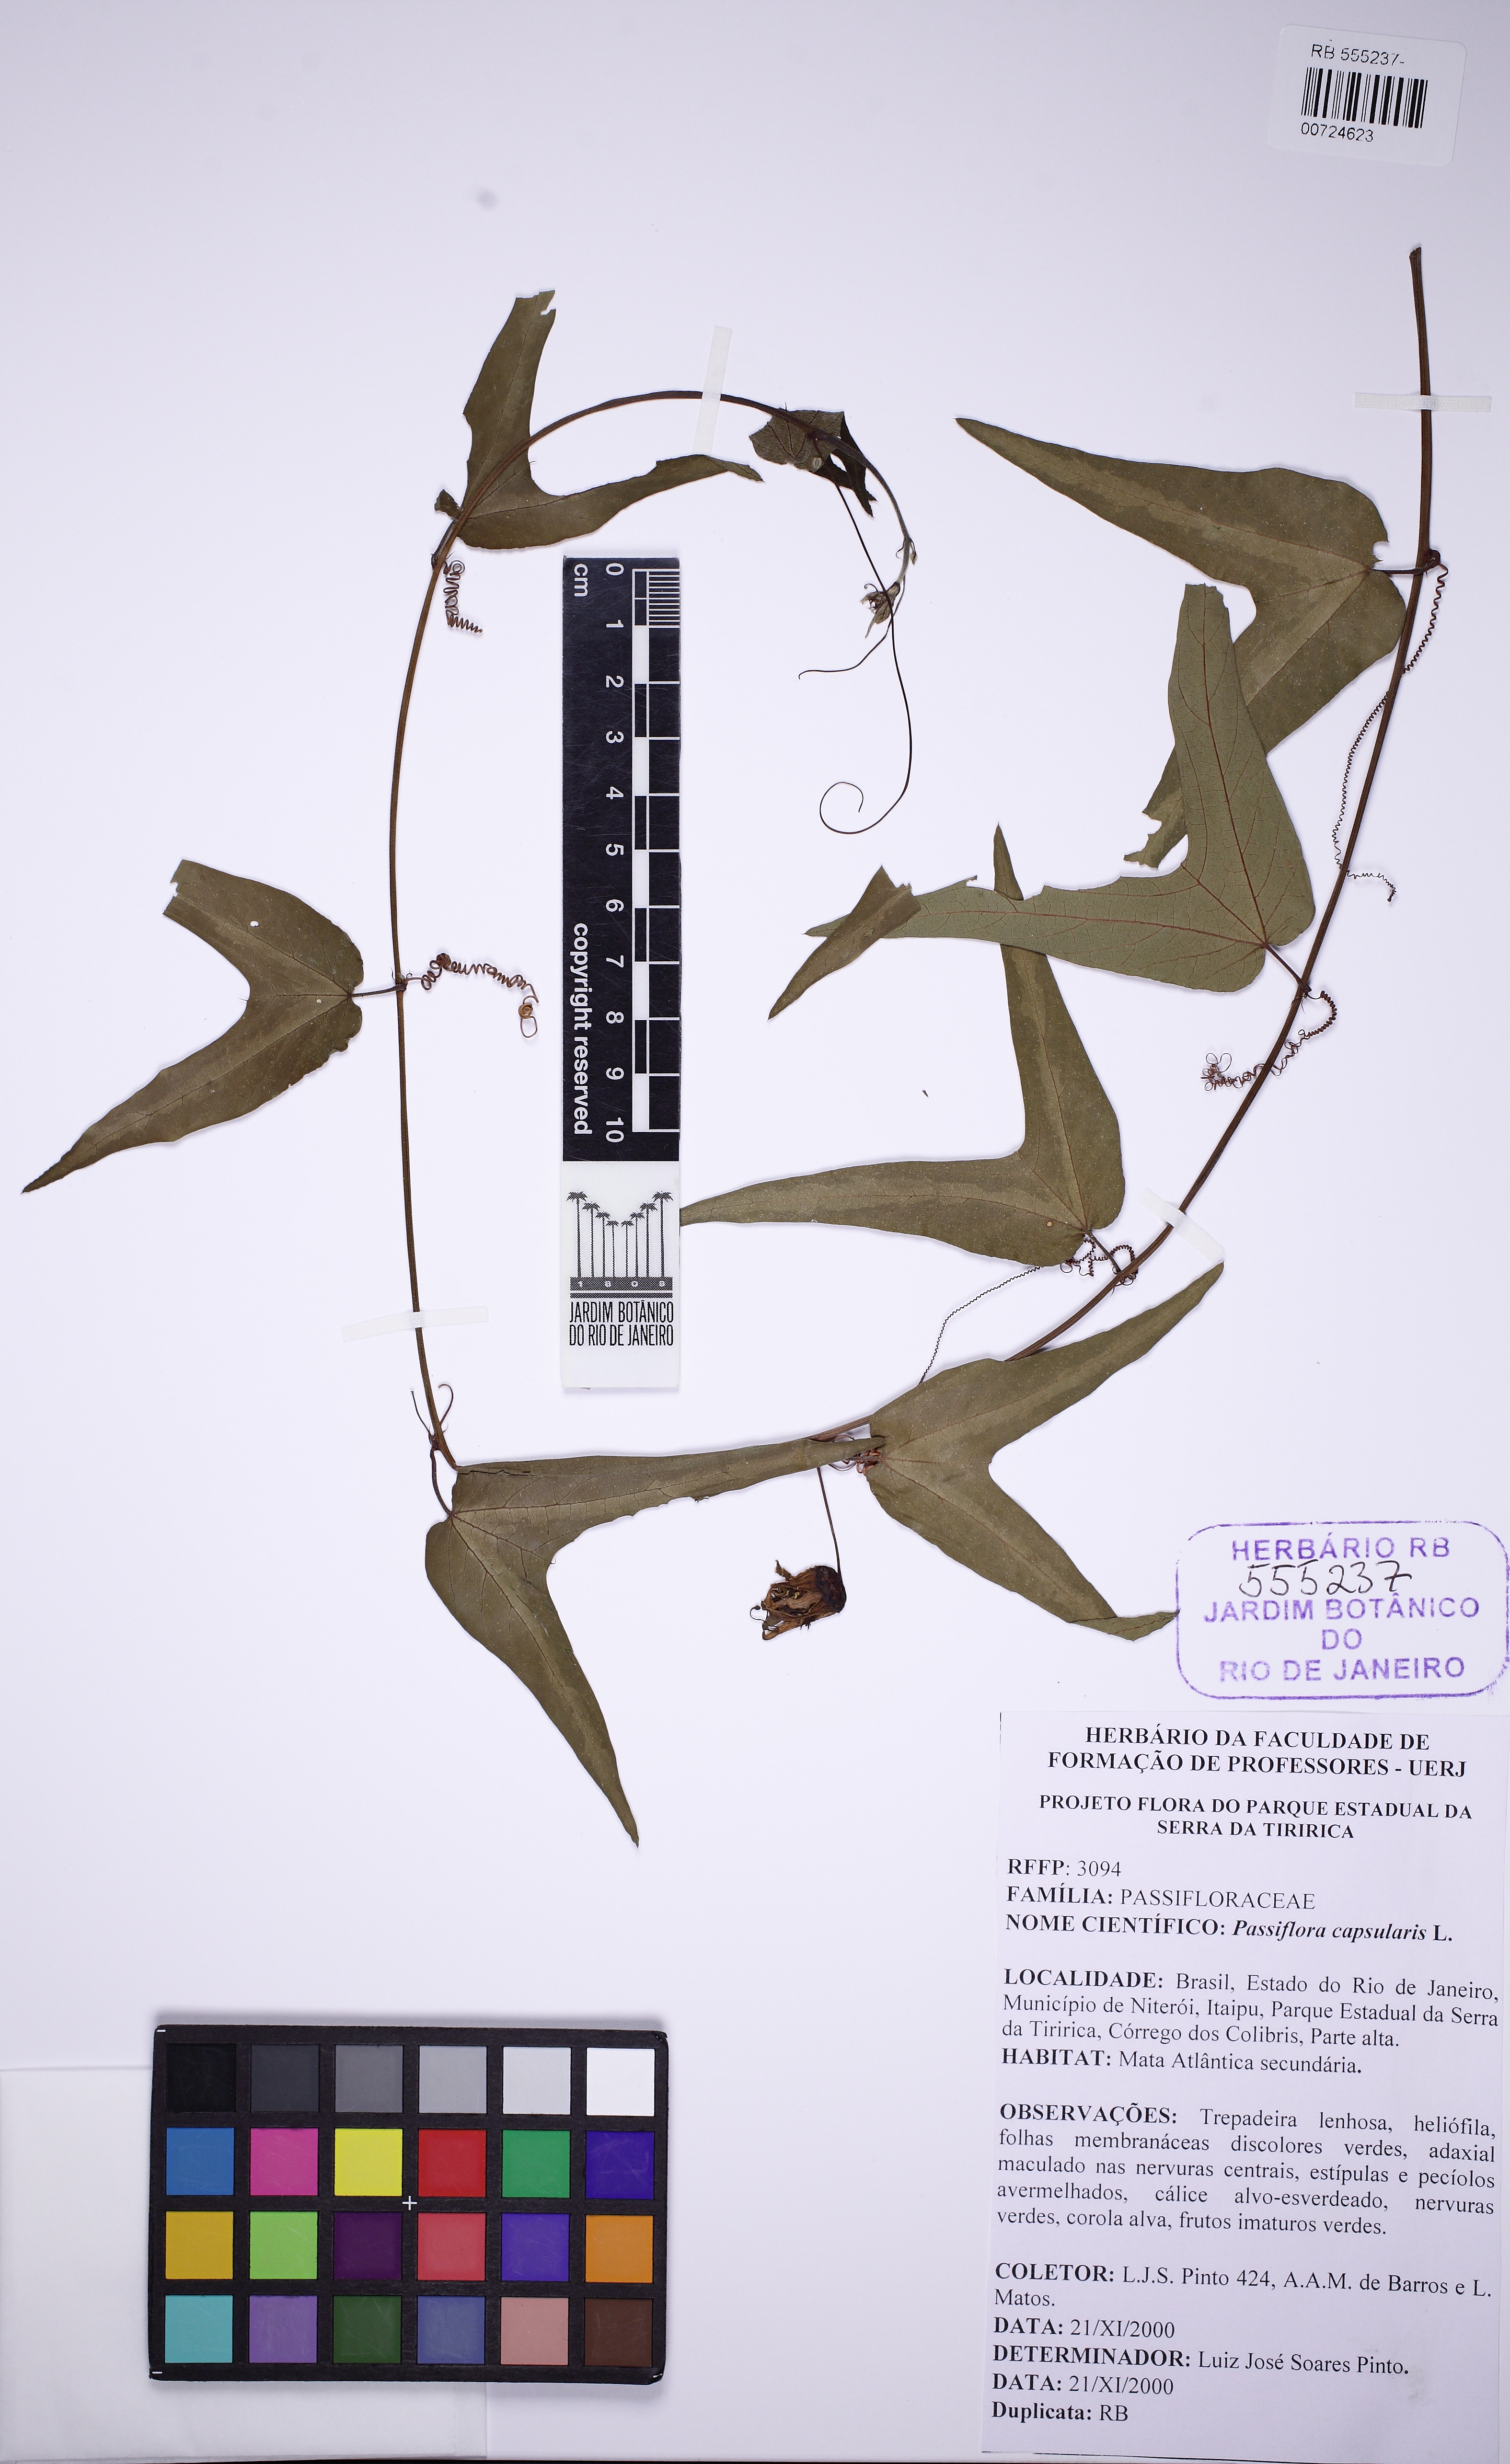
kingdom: Plantae
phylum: Tracheophyta
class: Magnoliopsida
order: Malpighiales
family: Passifloraceae
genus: Passiflora
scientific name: Passiflora capsularis
